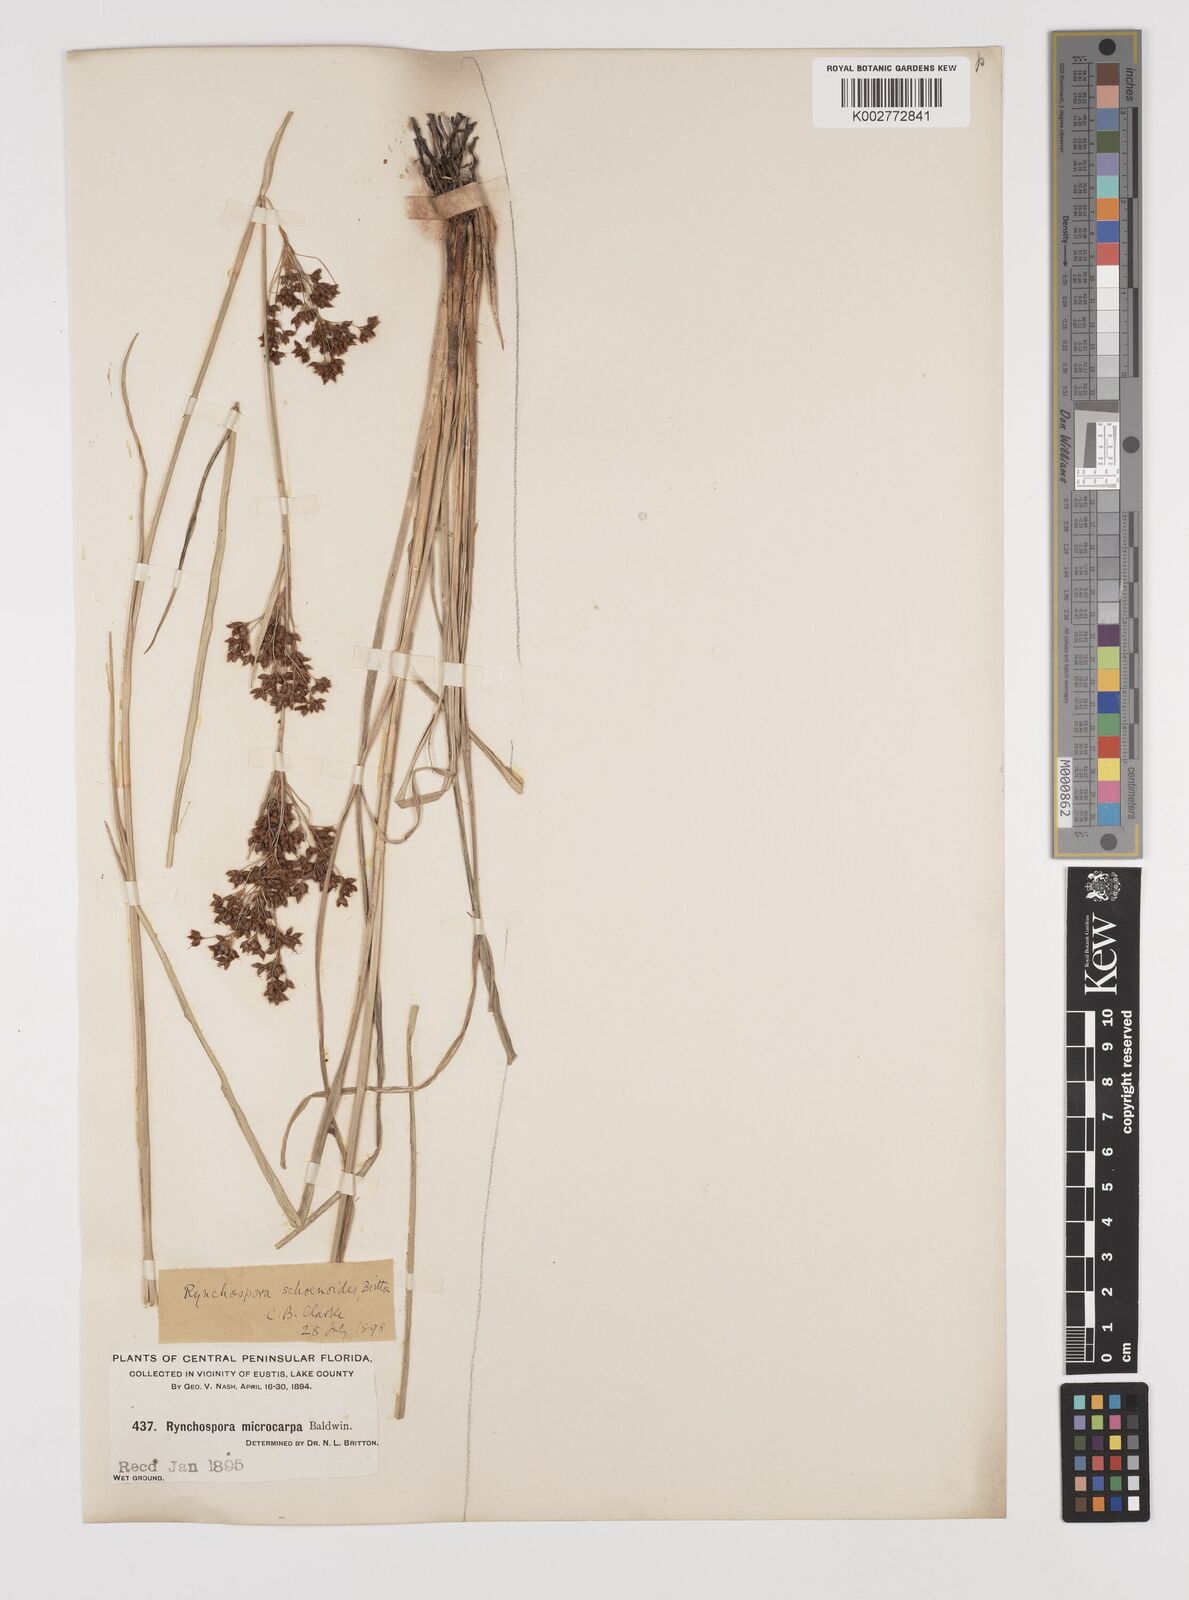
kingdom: Plantae
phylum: Tracheophyta
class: Liliopsida
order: Poales
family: Cyperaceae
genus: Rhynchospora
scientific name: Rhynchospora holoschoenoides
